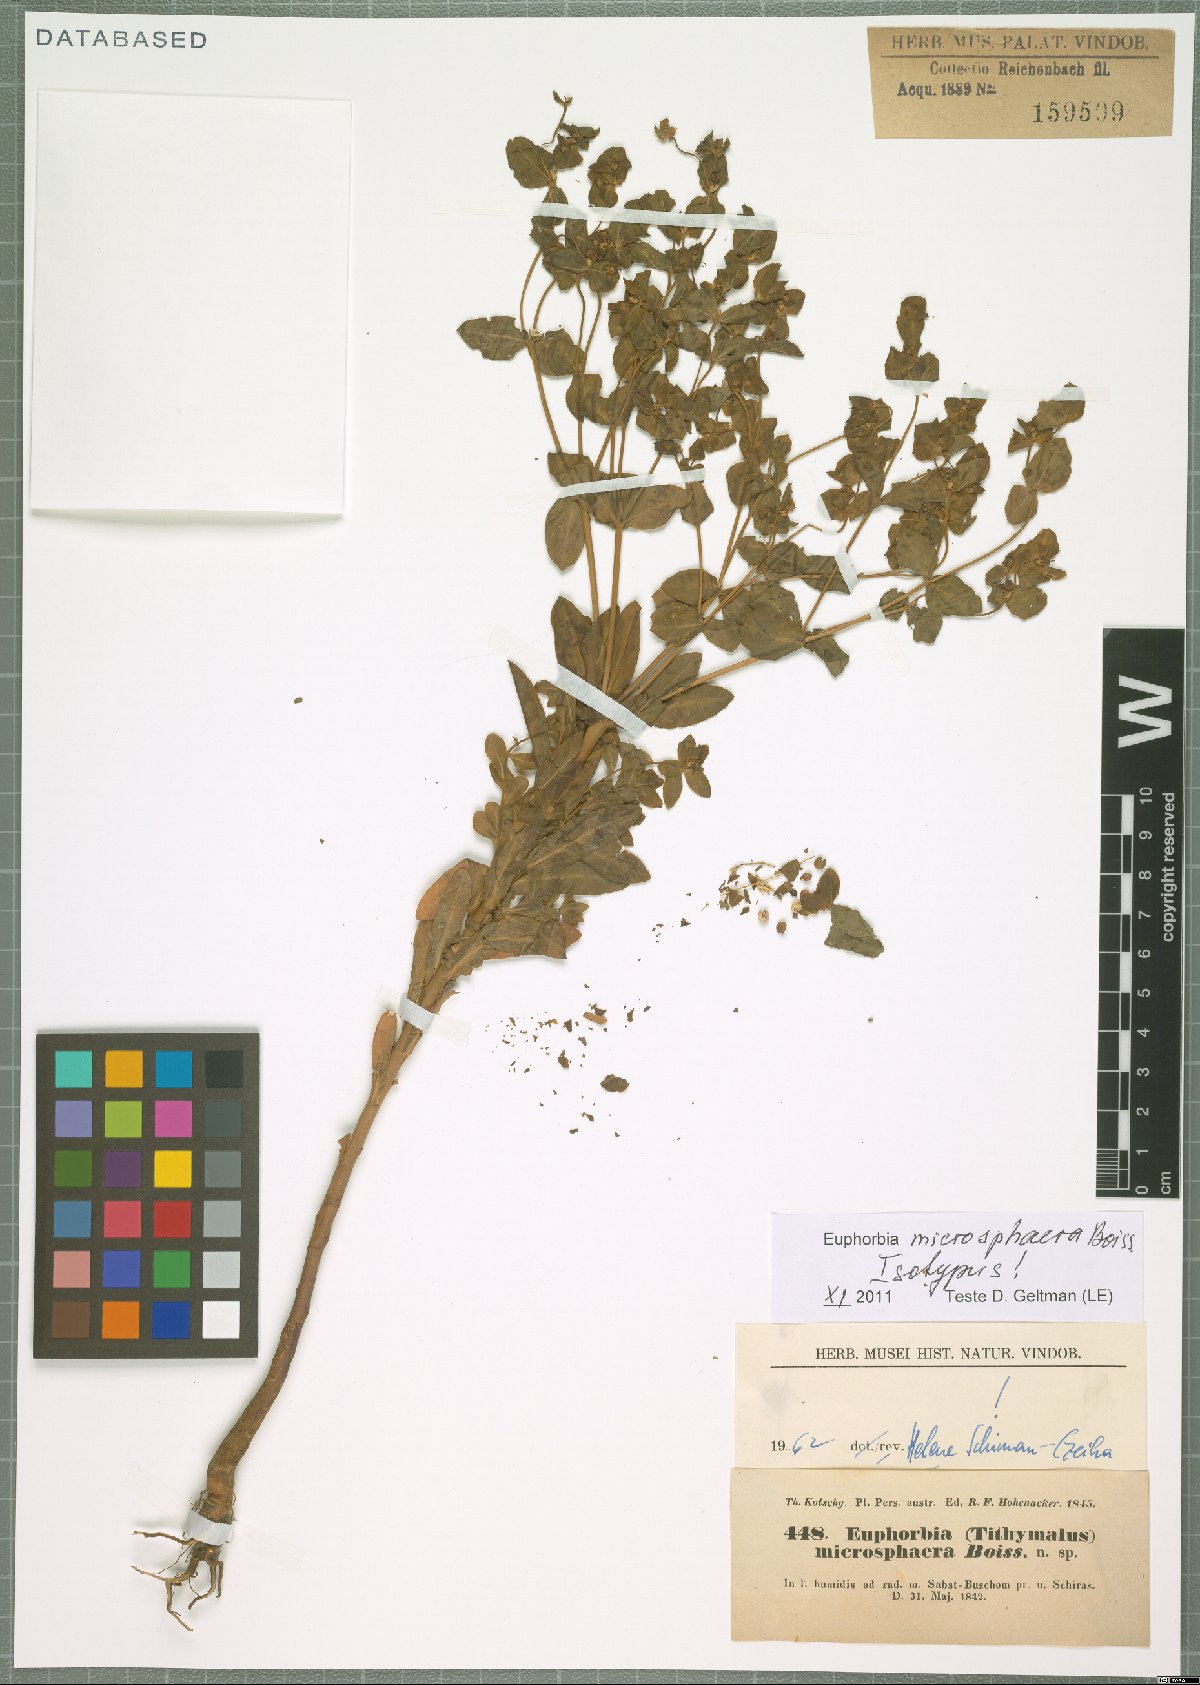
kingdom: Plantae
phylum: Tracheophyta
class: Magnoliopsida
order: Malpighiales
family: Euphorbiaceae
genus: Euphorbia
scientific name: Euphorbia microsphaera
